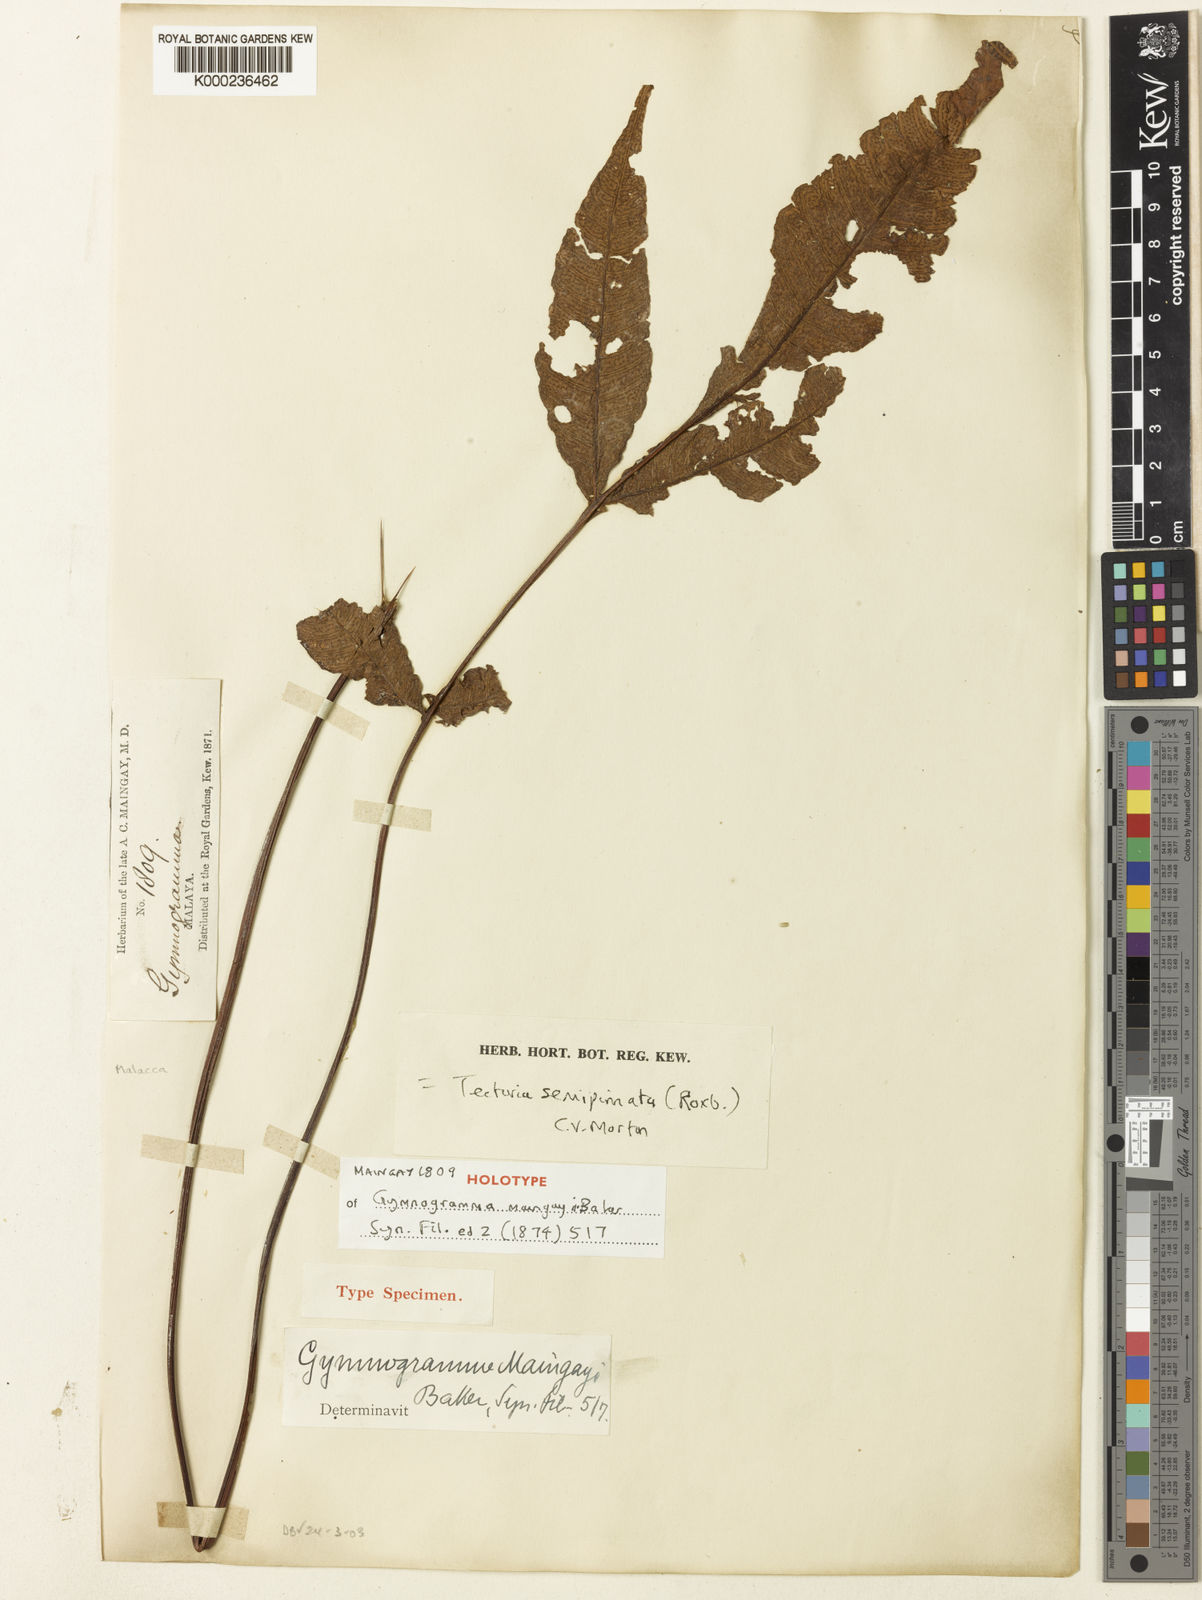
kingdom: Plantae
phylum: Tracheophyta
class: Polypodiopsida
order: Polypodiales
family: Tectariaceae
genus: Tectaria
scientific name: Tectaria semipinnata
